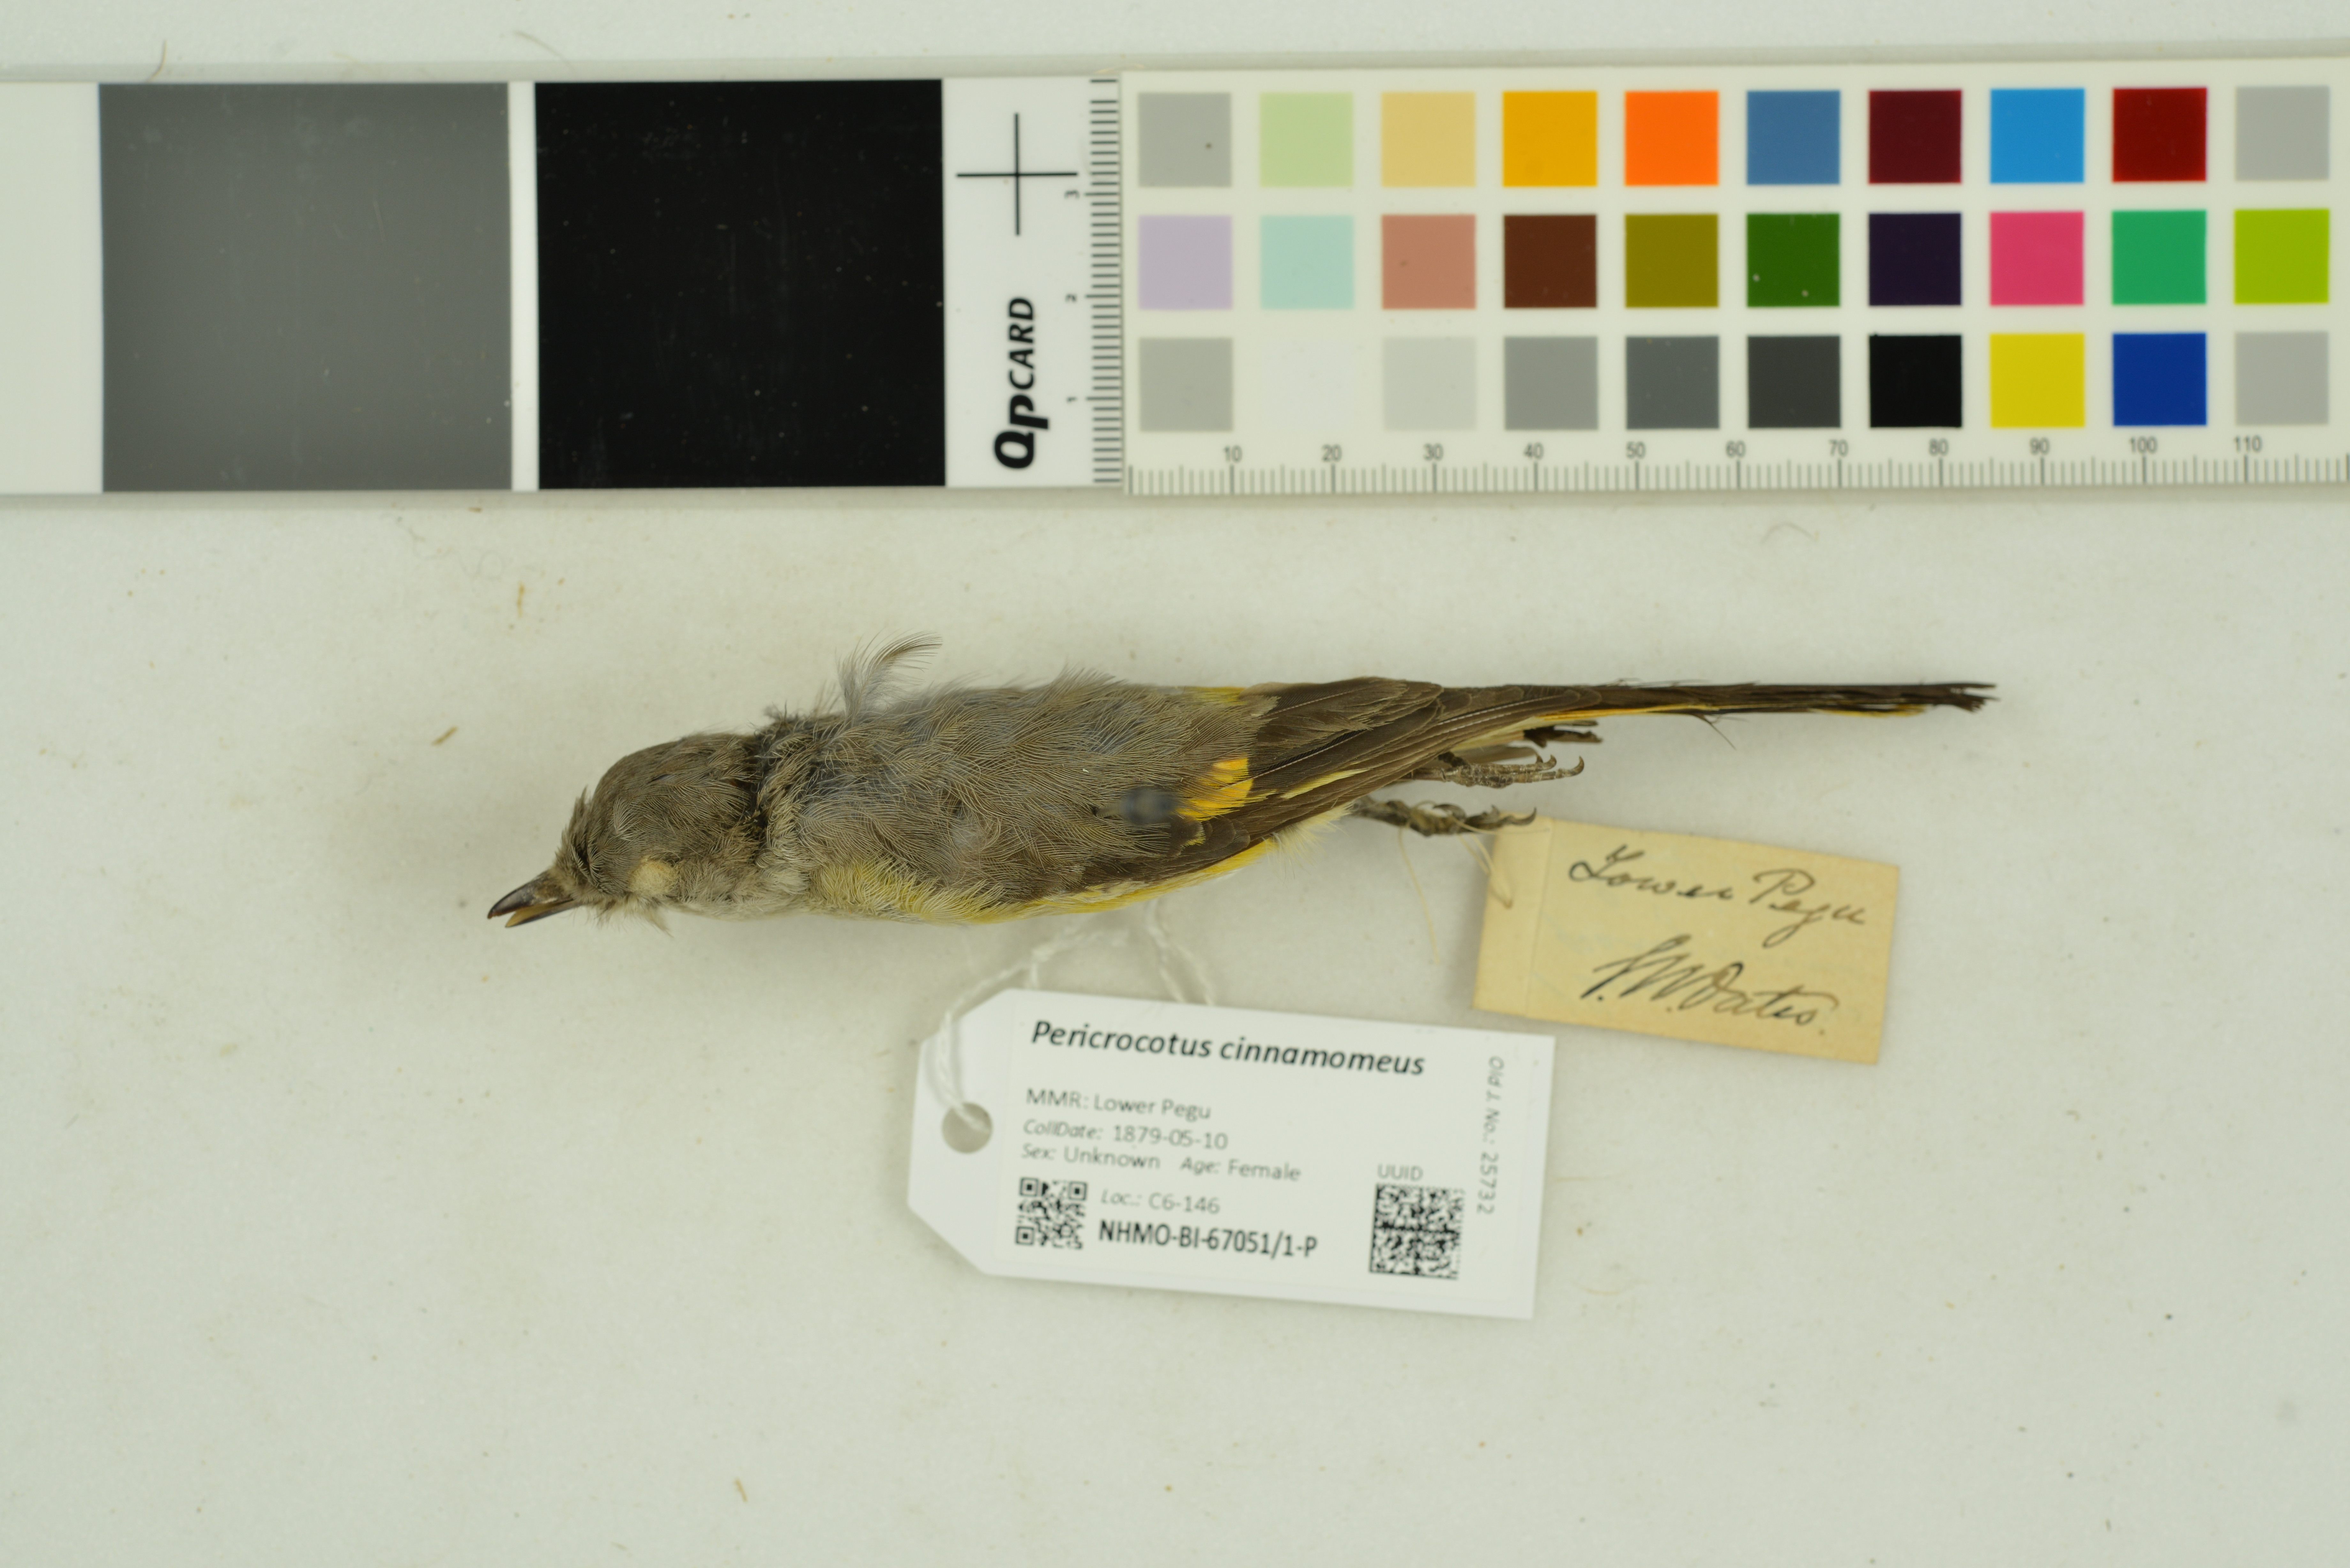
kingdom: Animalia
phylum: Chordata
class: Aves
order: Passeriformes
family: Campephagidae
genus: Pericrocotus
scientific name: Pericrocotus cinnamomeus
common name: Small minivet
